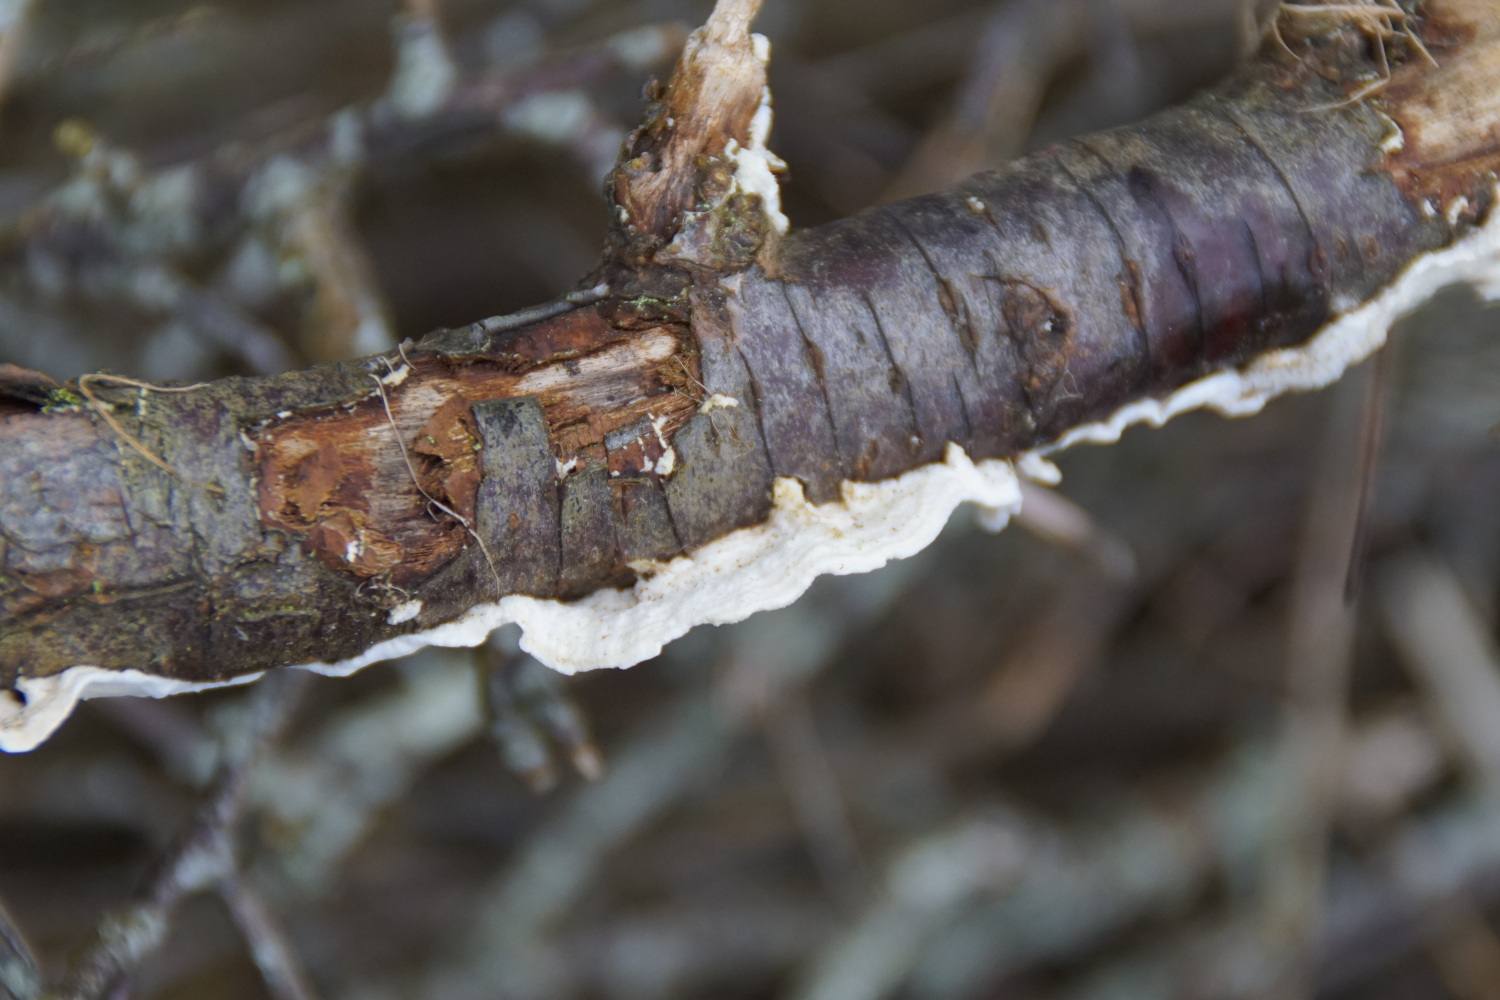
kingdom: Fungi
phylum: Basidiomycota
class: Agaricomycetes
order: Polyporales
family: Irpicaceae
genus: Byssomerulius
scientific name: Byssomerulius corium
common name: læder-åresvamp
